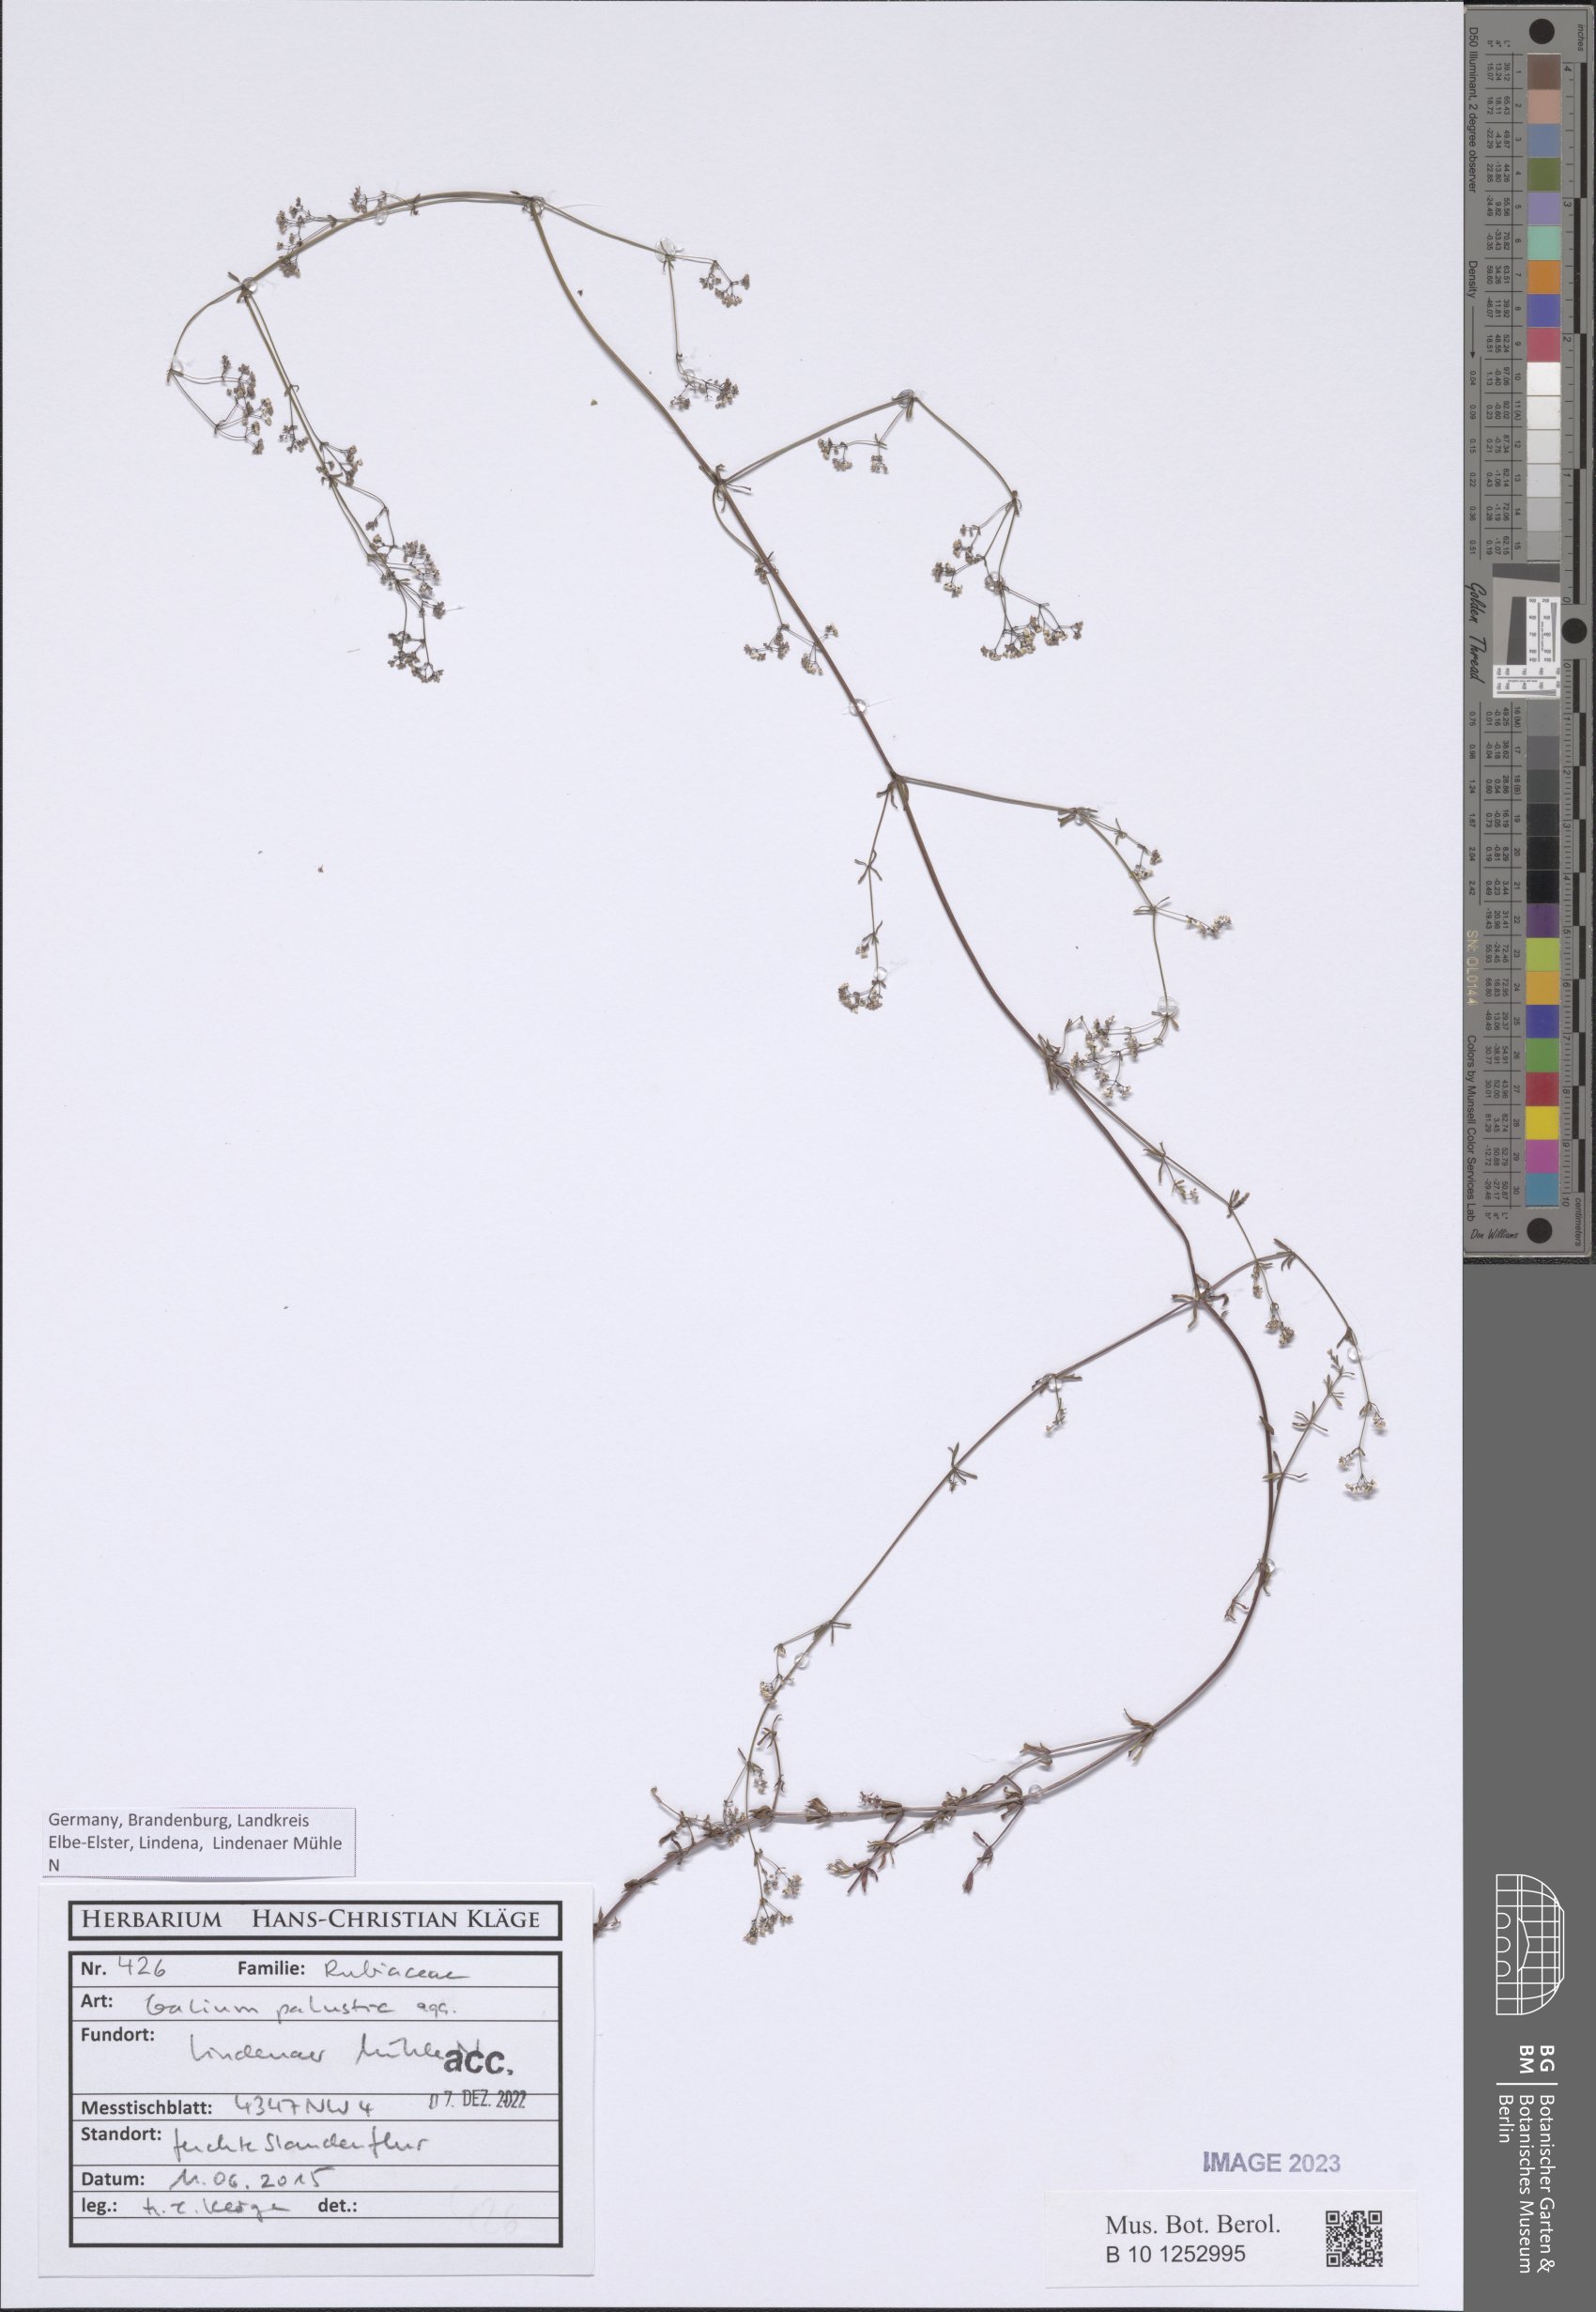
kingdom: Plantae
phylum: Tracheophyta
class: Magnoliopsida
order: Gentianales
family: Rubiaceae
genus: Galium
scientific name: Galium palustre
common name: Common marsh-bedstraw
